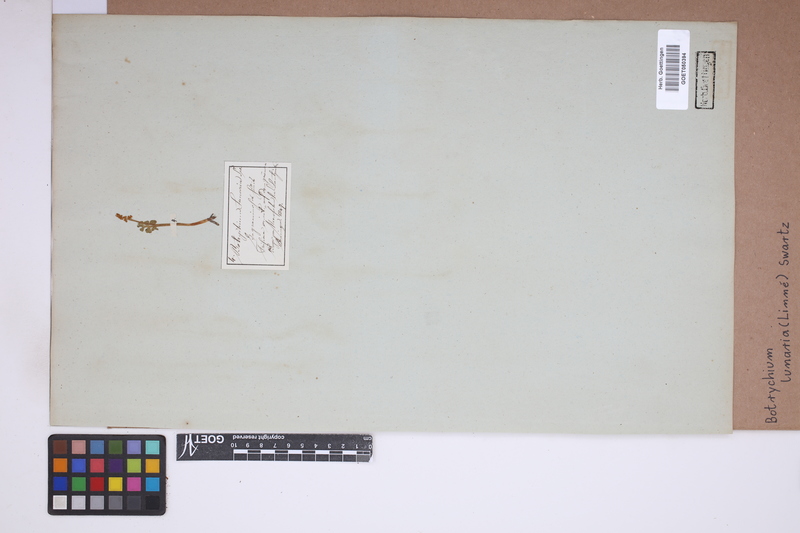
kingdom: Plantae
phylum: Tracheophyta
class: Polypodiopsida
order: Ophioglossales
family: Ophioglossaceae
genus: Botrychium
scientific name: Botrychium lunaria
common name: Moonwort
